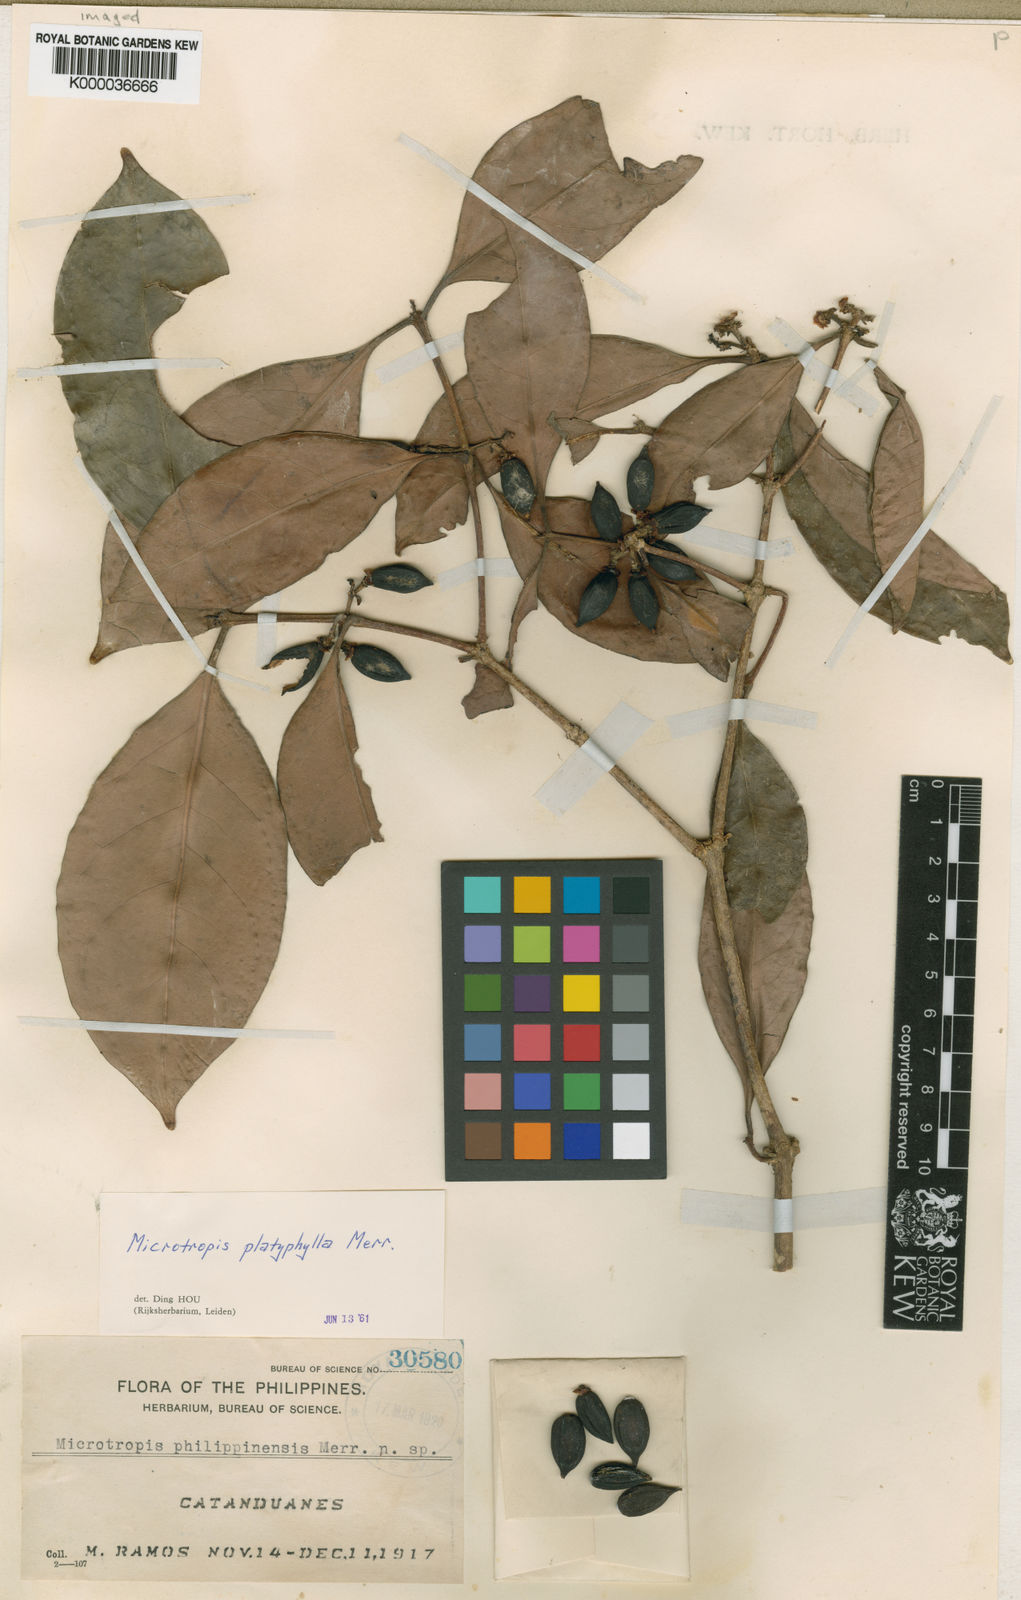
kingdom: Plantae
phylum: Tracheophyta
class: Magnoliopsida
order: Celastrales
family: Celastraceae
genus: Microtropis
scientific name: Microtropis platyphylla
